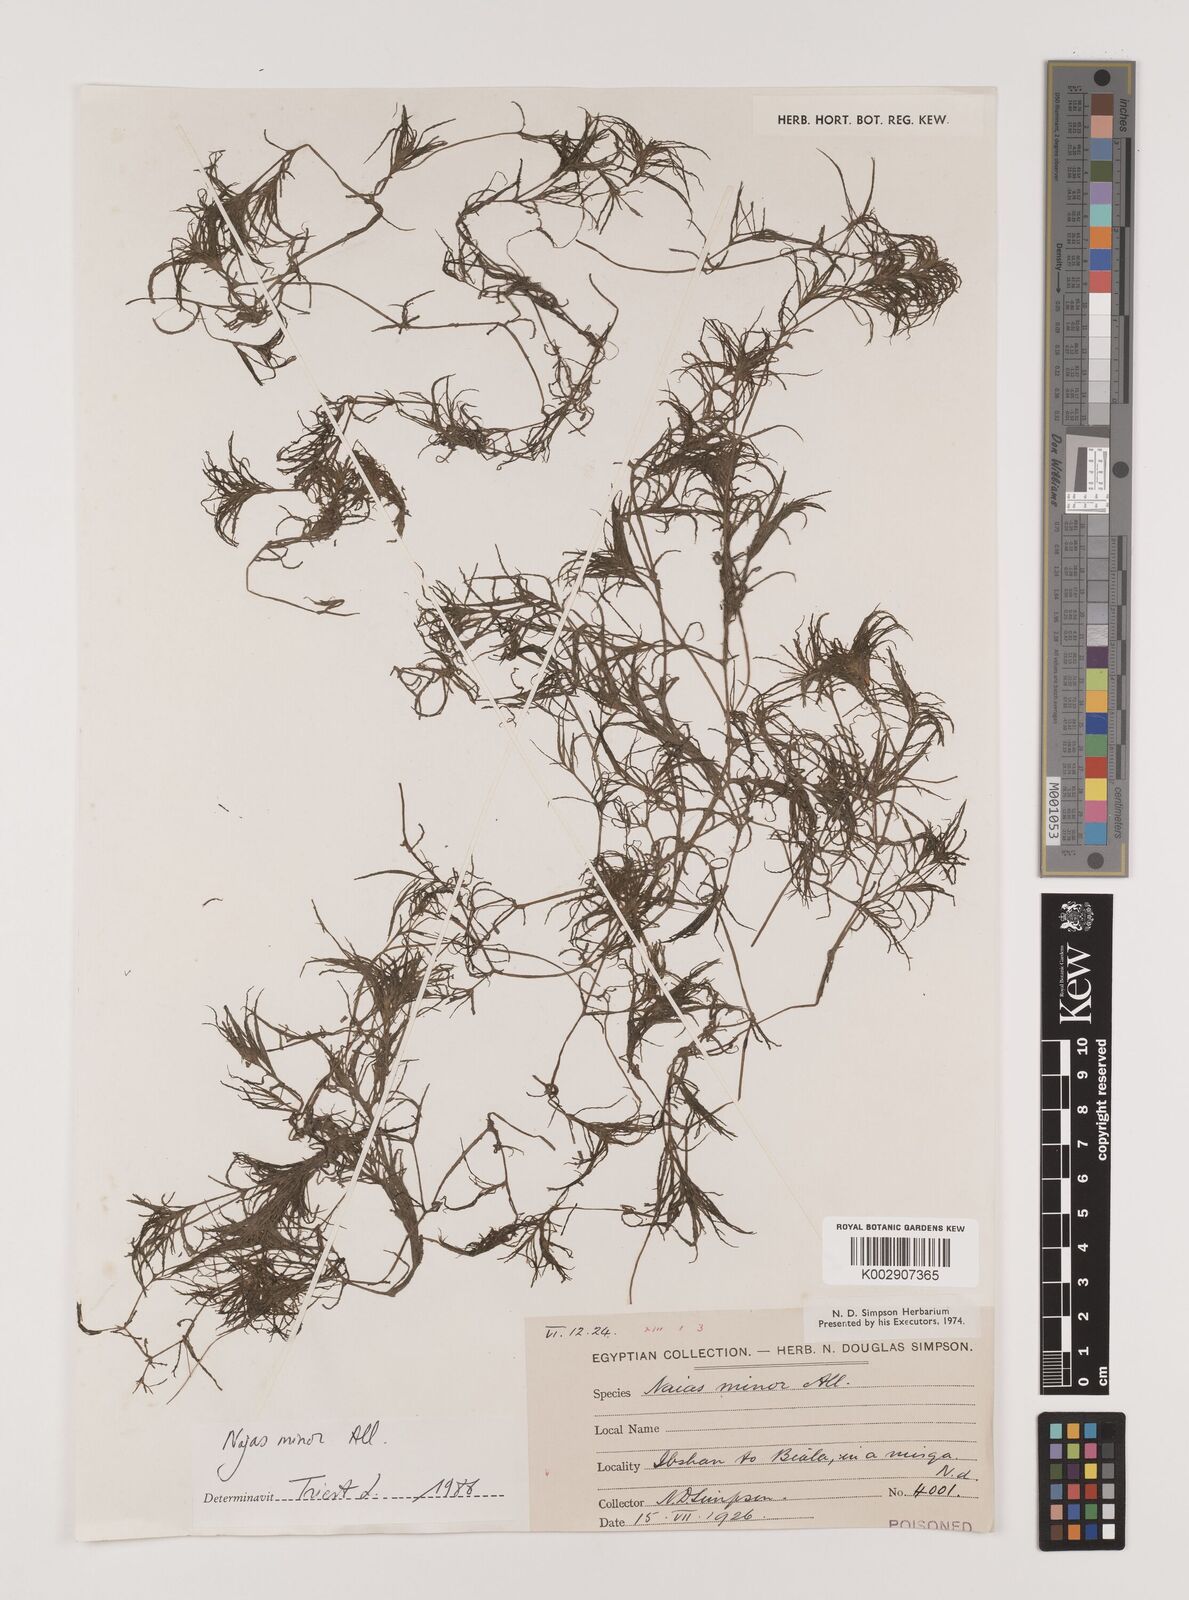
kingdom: Plantae
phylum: Tracheophyta
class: Liliopsida
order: Alismatales
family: Hydrocharitaceae
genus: Najas
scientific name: Najas minor
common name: Brittle naiad
